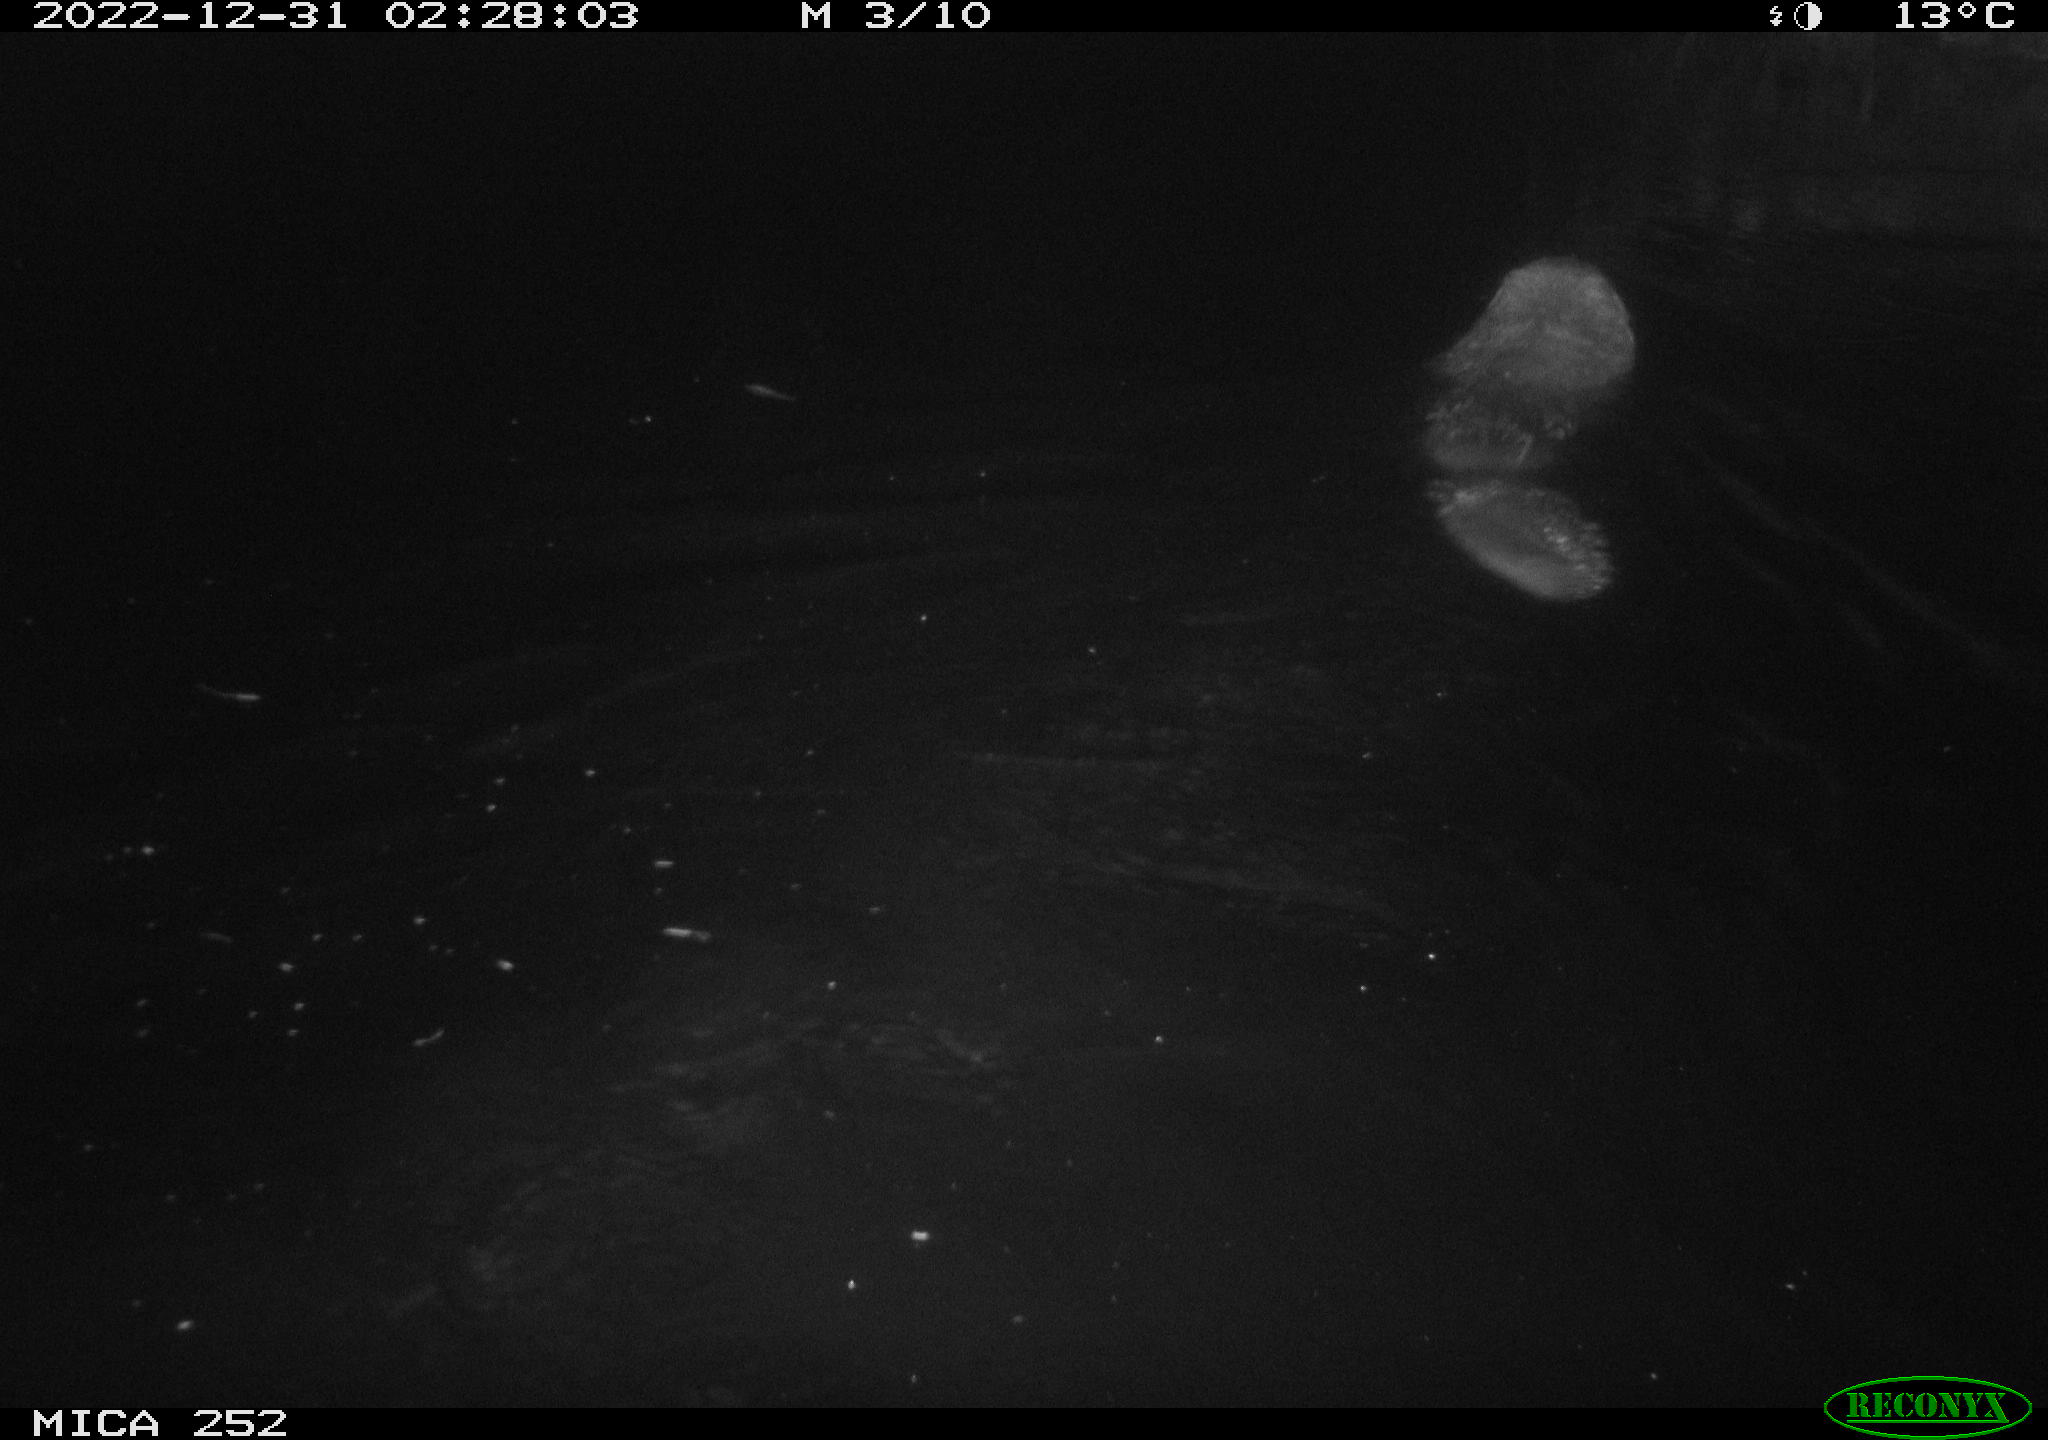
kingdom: Animalia
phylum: Chordata
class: Mammalia
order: Rodentia
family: Castoridae
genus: Castor
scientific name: Castor fiber
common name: Eurasian beaver
